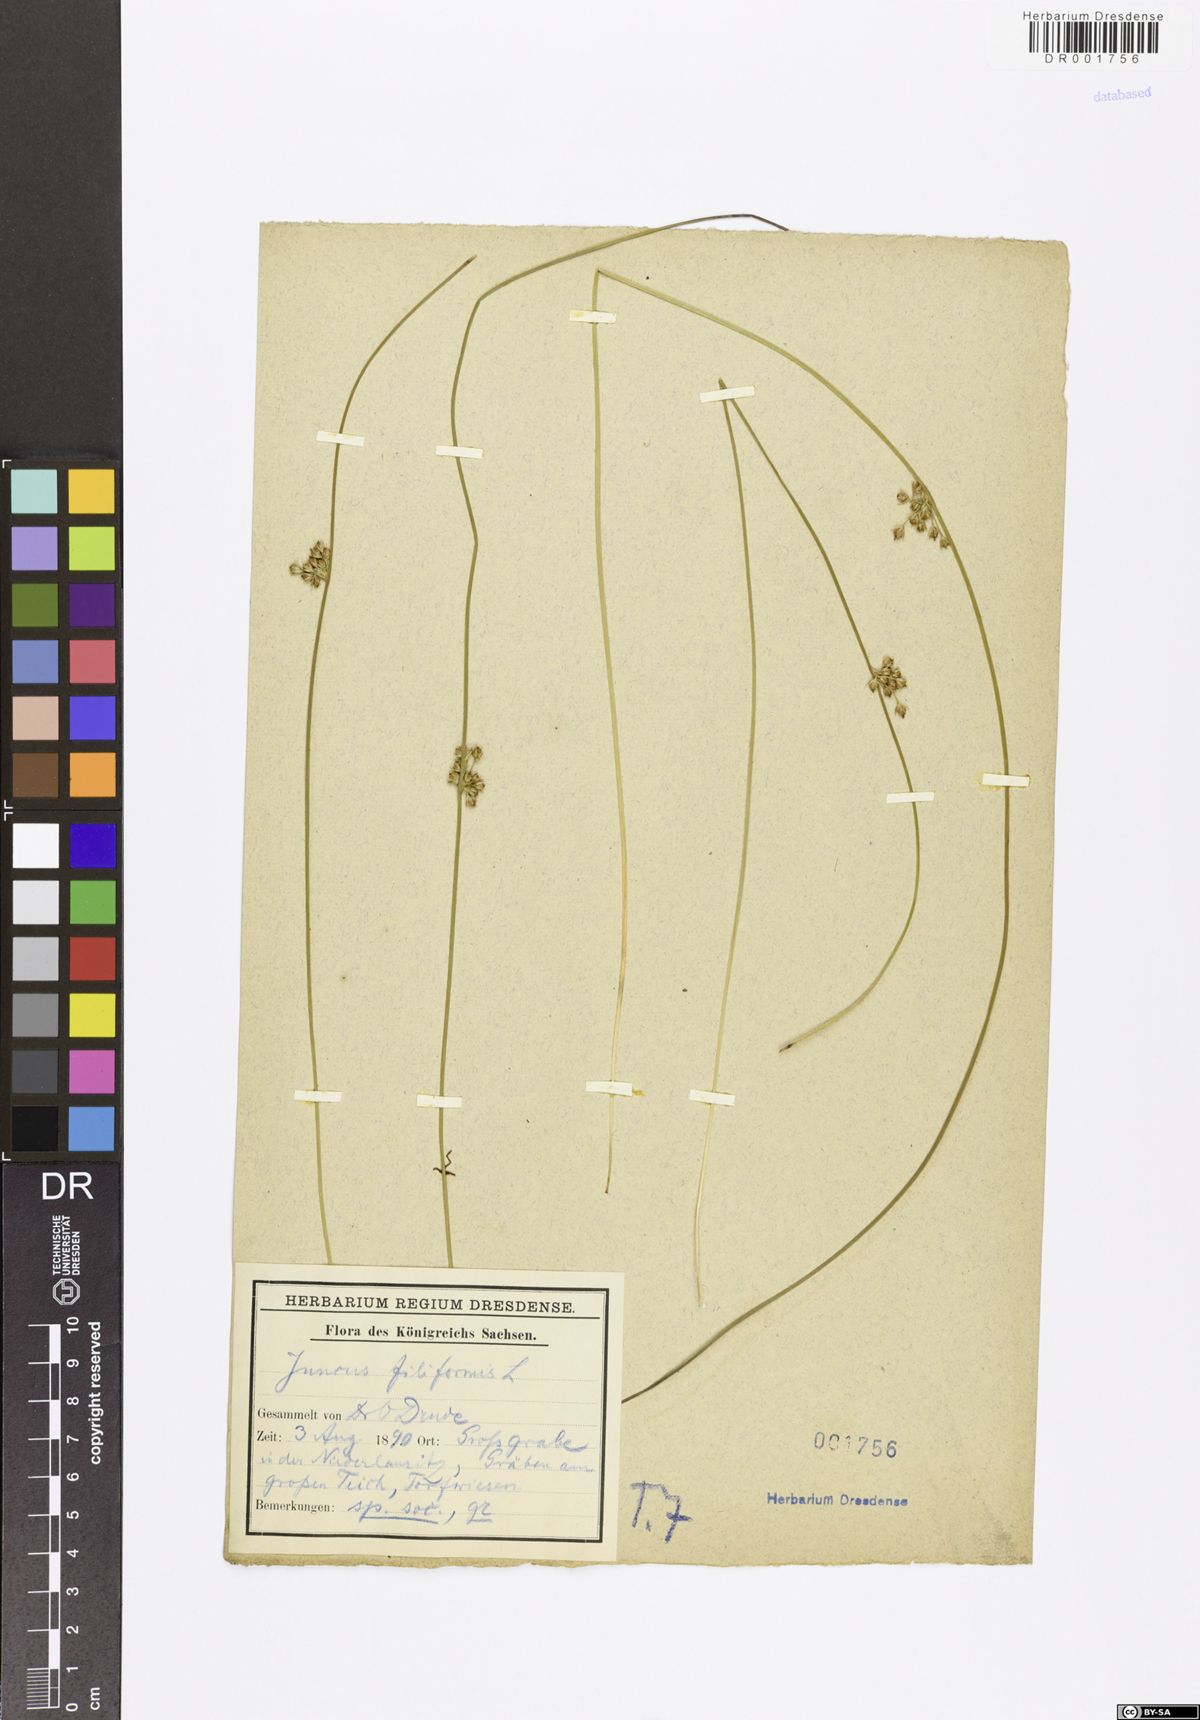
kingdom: Plantae
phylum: Tracheophyta
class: Liliopsida
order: Poales
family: Juncaceae
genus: Juncus
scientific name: Juncus inflexus
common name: Hard rush
